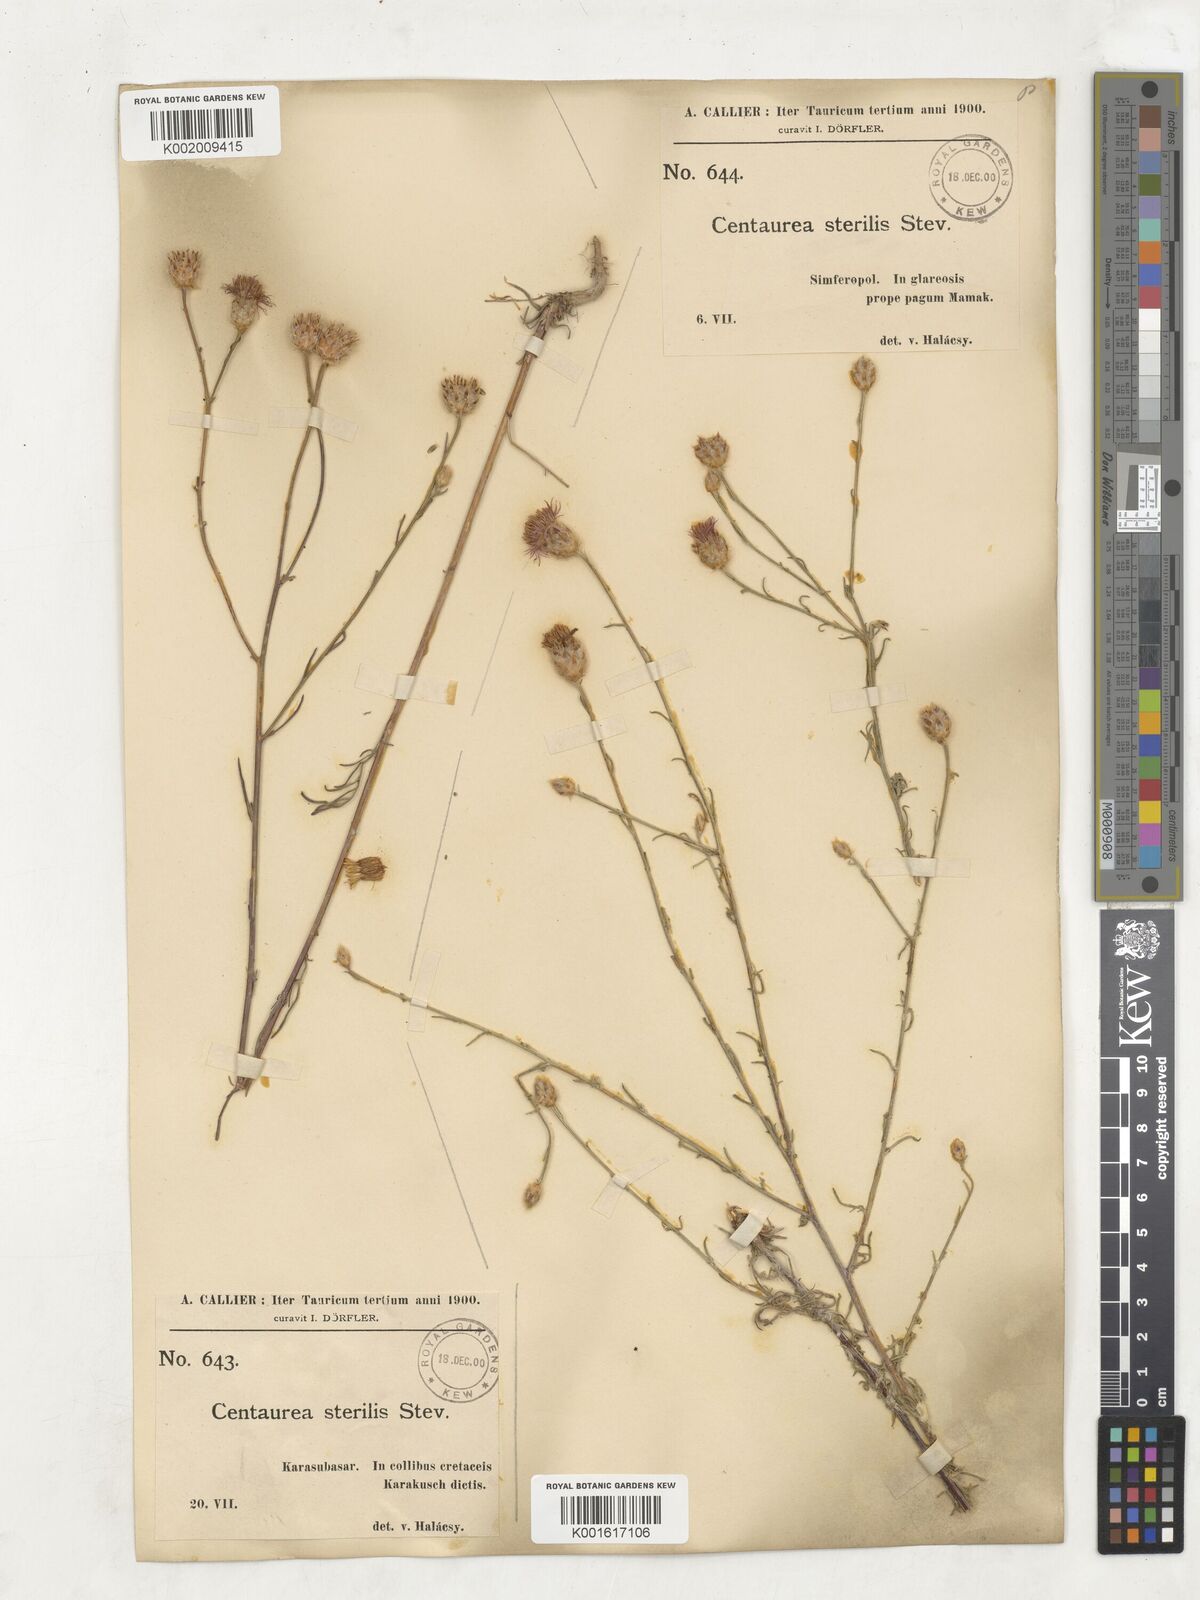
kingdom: Plantae
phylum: Tracheophyta
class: Magnoliopsida
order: Asterales
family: Asteraceae
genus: Centaurea
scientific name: Centaurea sterilis
